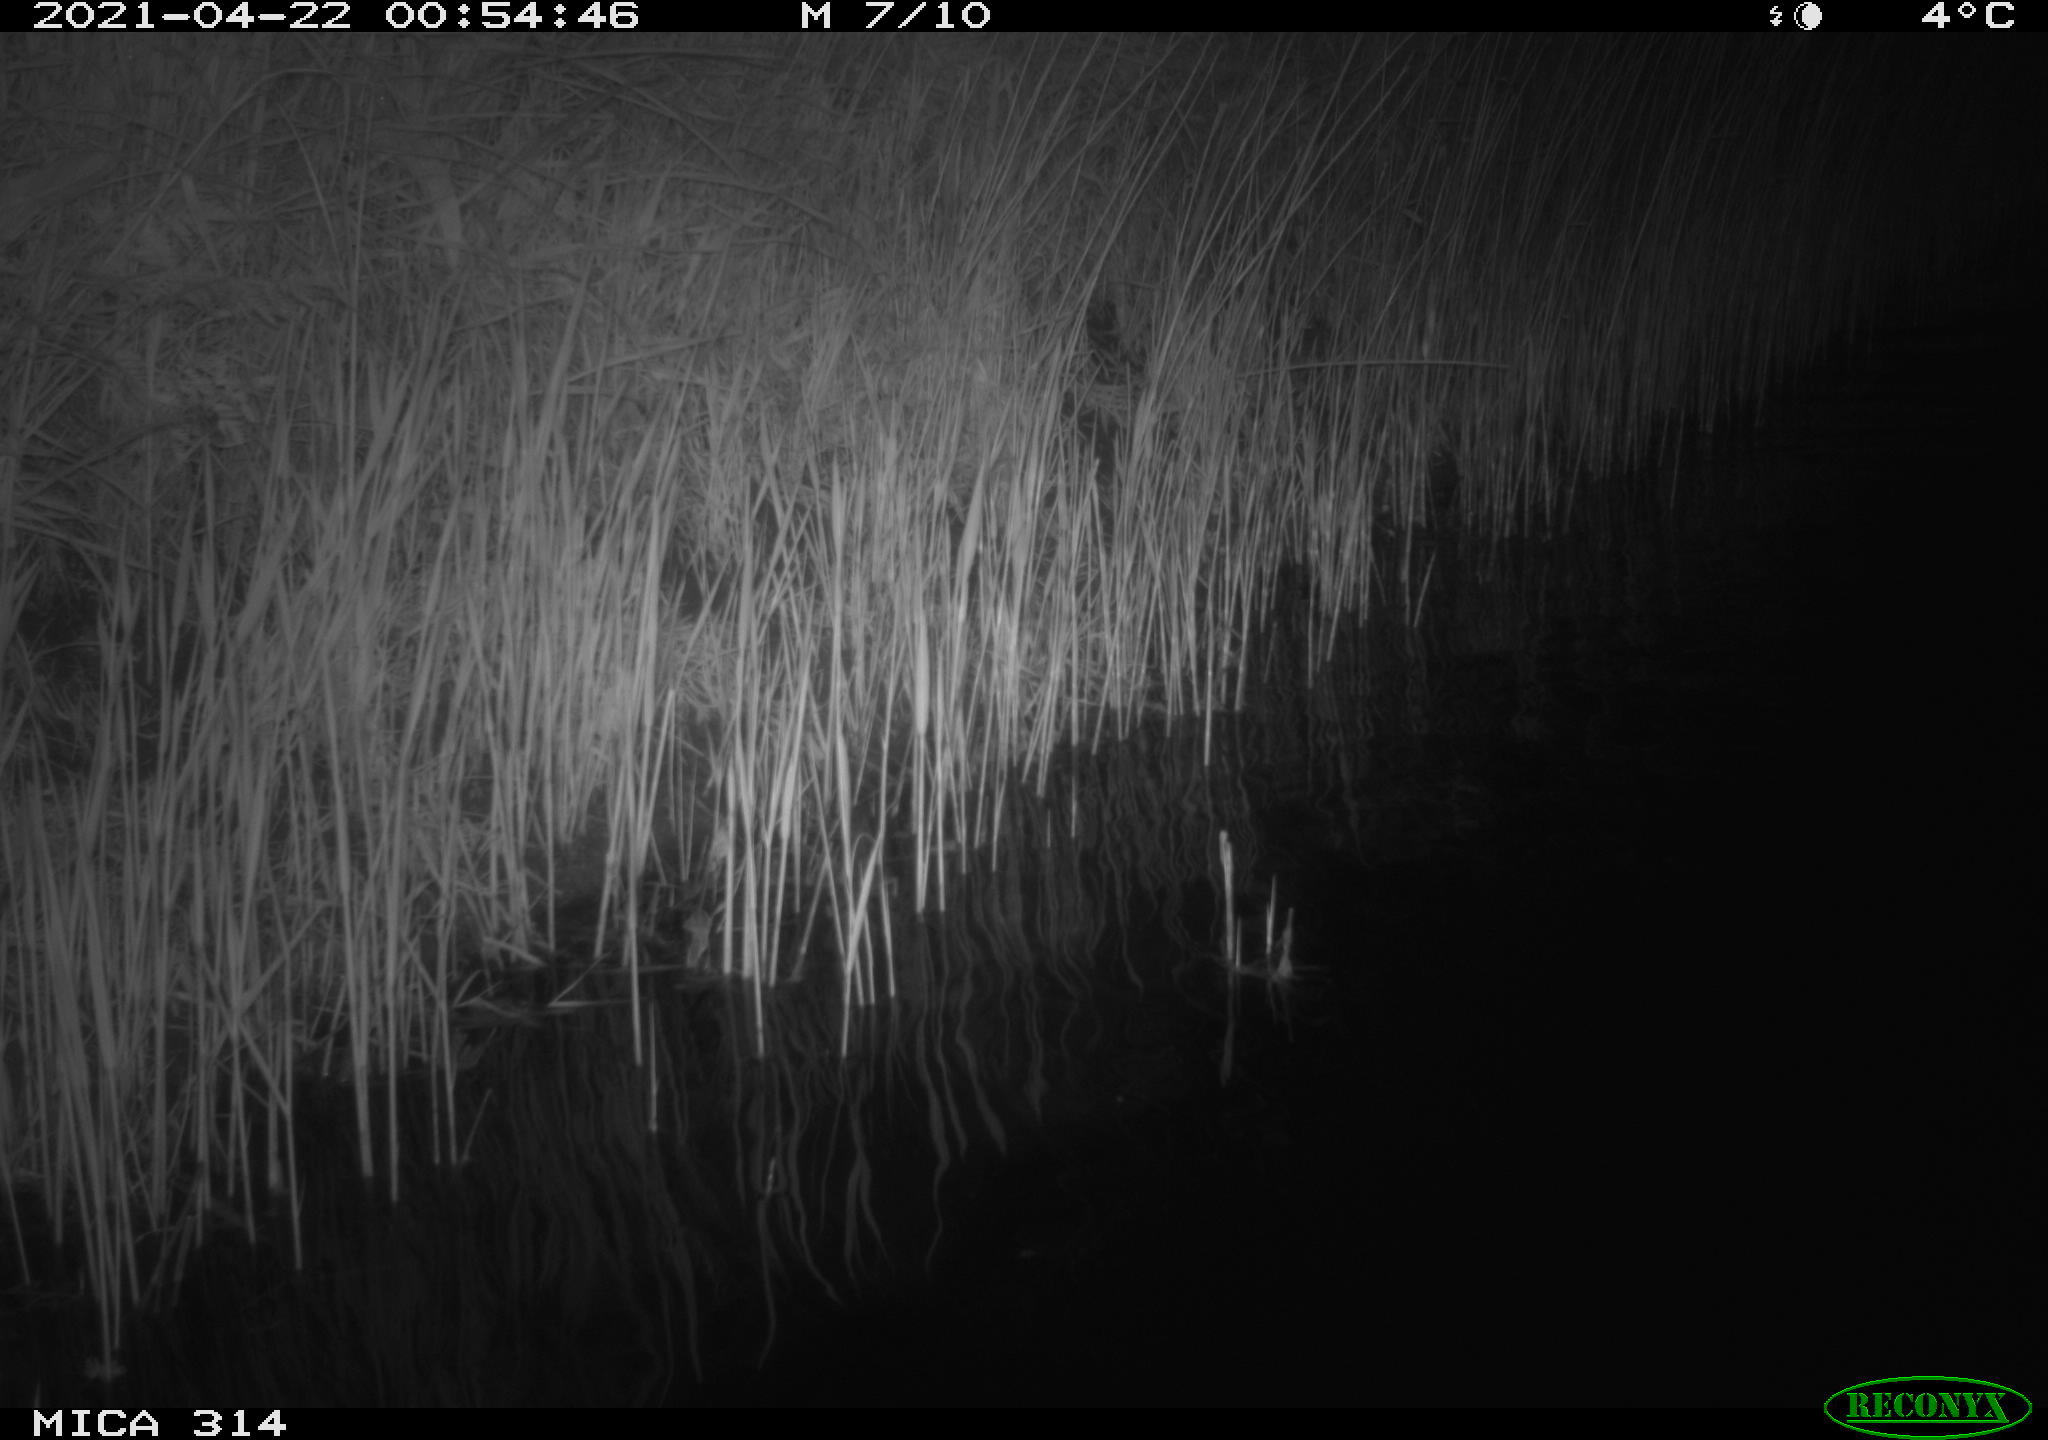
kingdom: Animalia
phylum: Chordata
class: Aves
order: Anseriformes
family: Anatidae
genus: Anas
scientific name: Anas platyrhynchos
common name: Mallard
